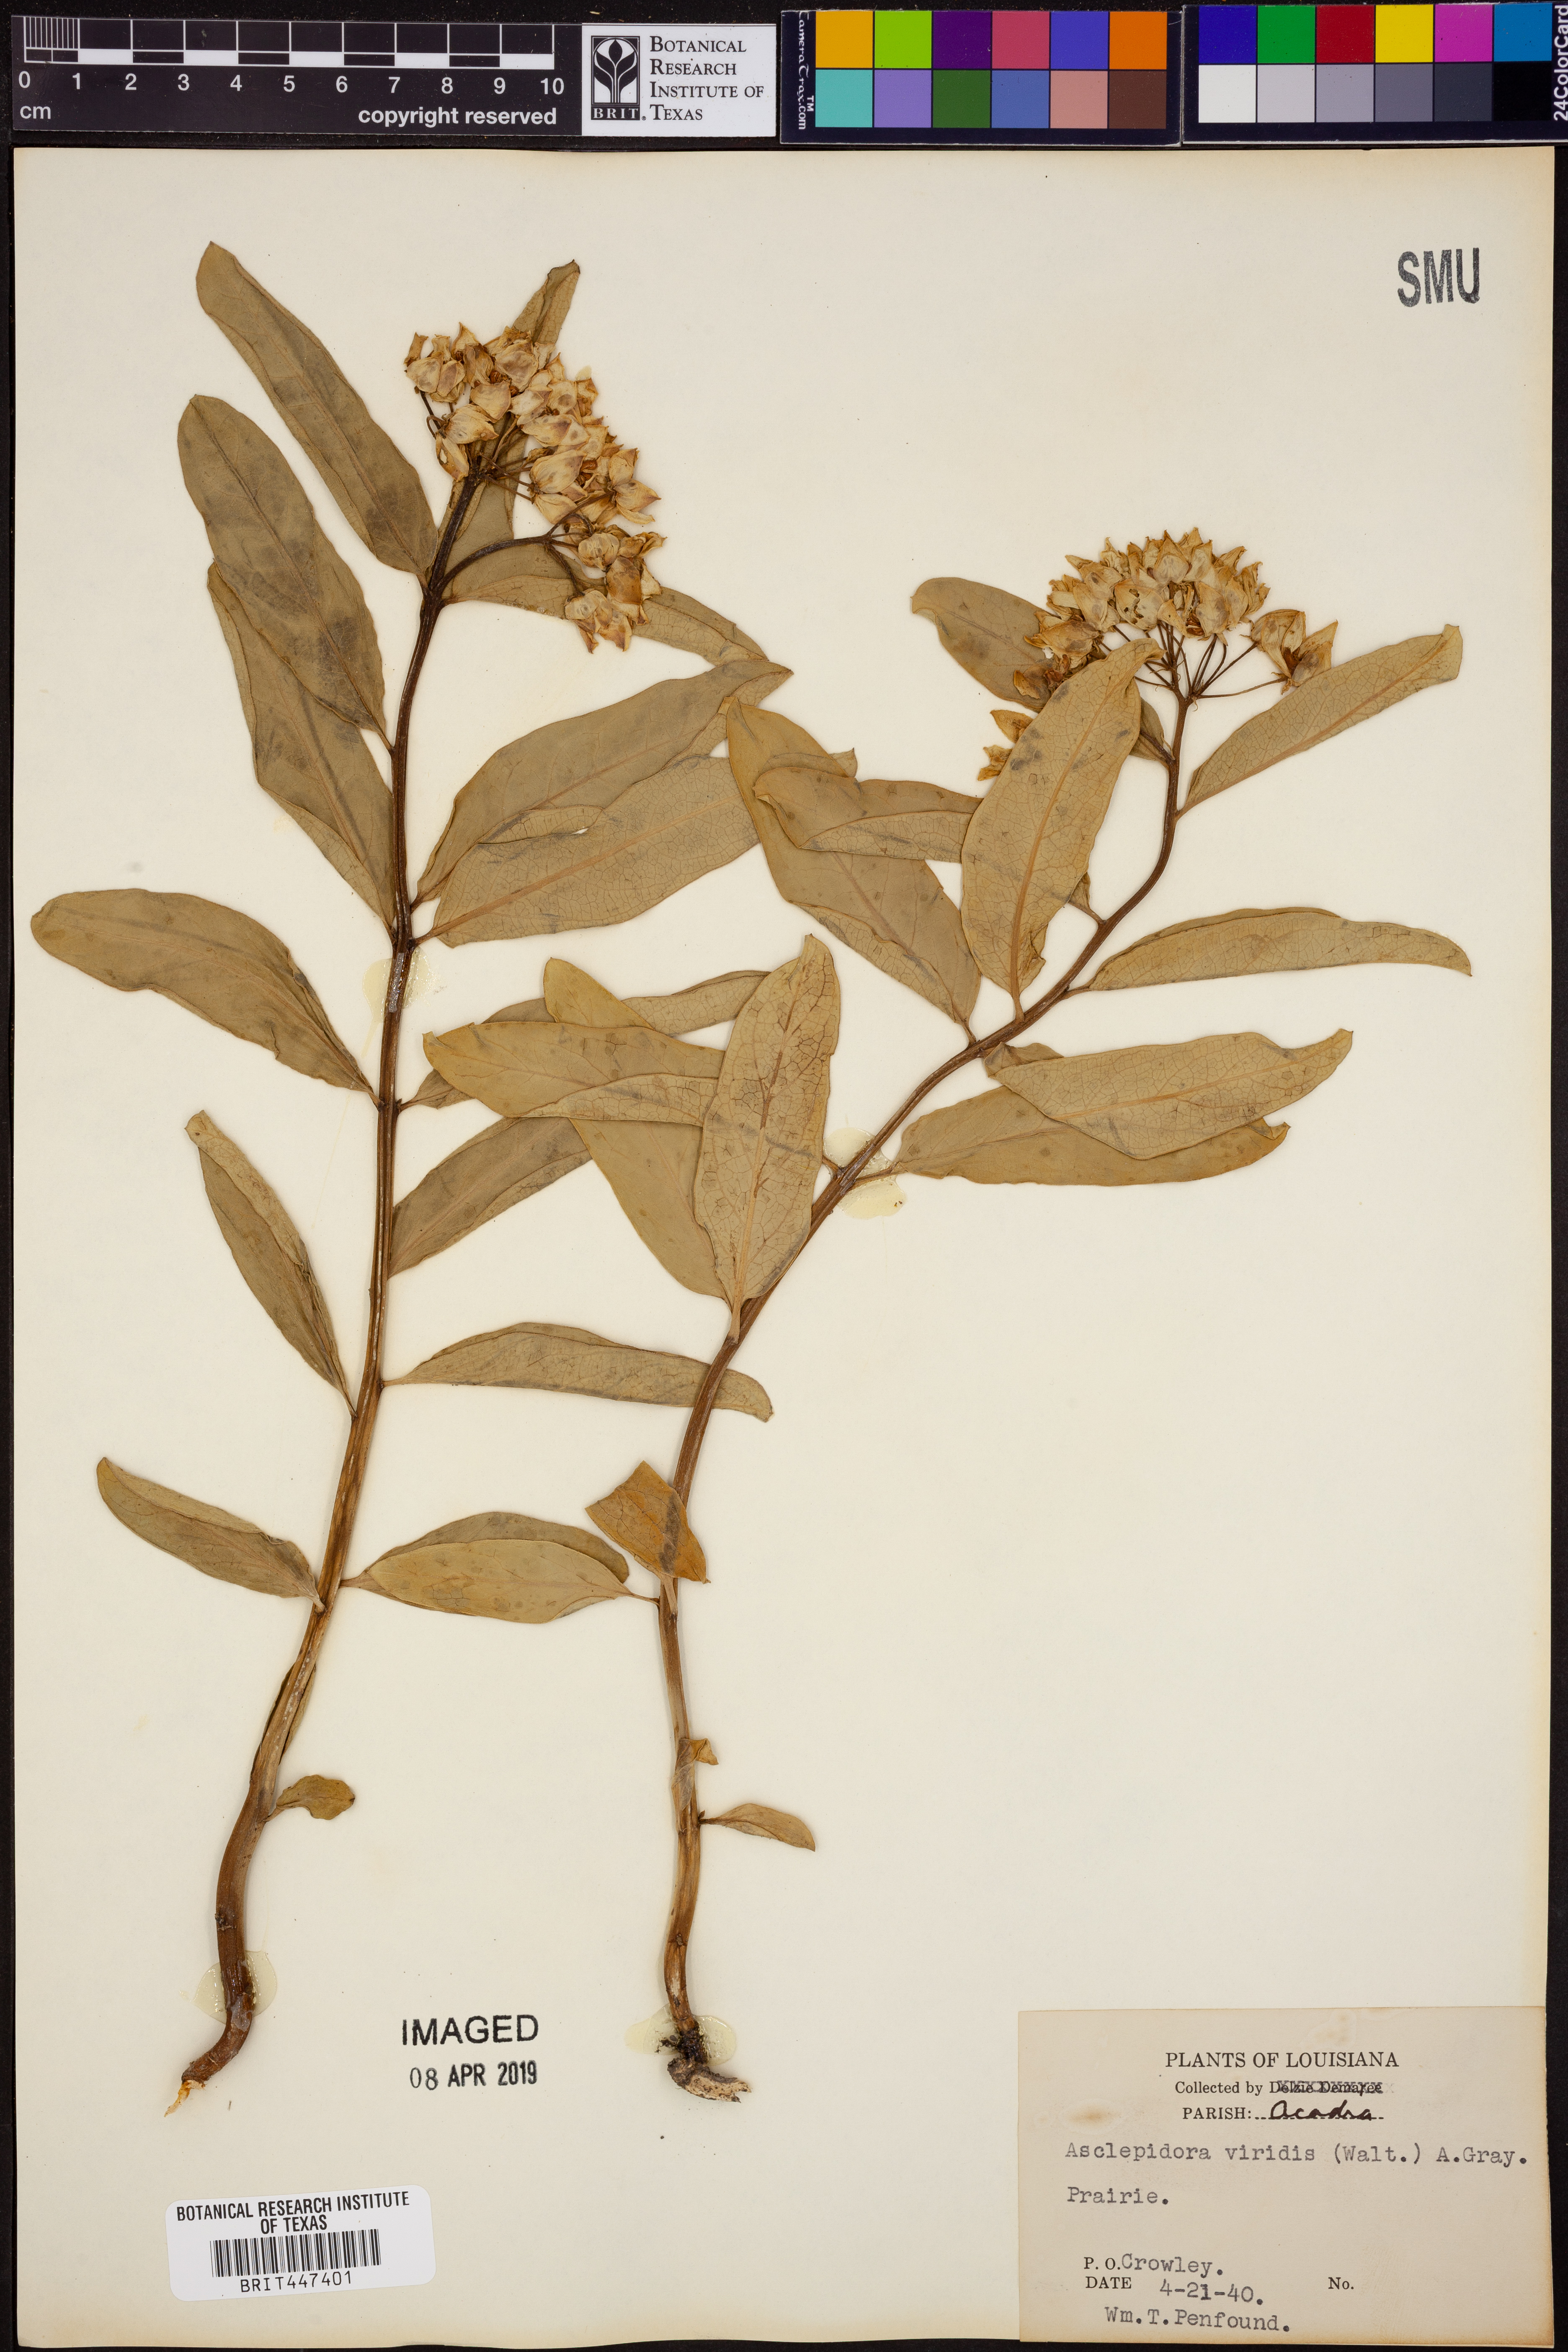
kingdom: Plantae
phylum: Tracheophyta
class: Magnoliopsida
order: Gentianales
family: Apocynaceae
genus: Asclepias
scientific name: Asclepias viridis
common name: Antelope-horns
